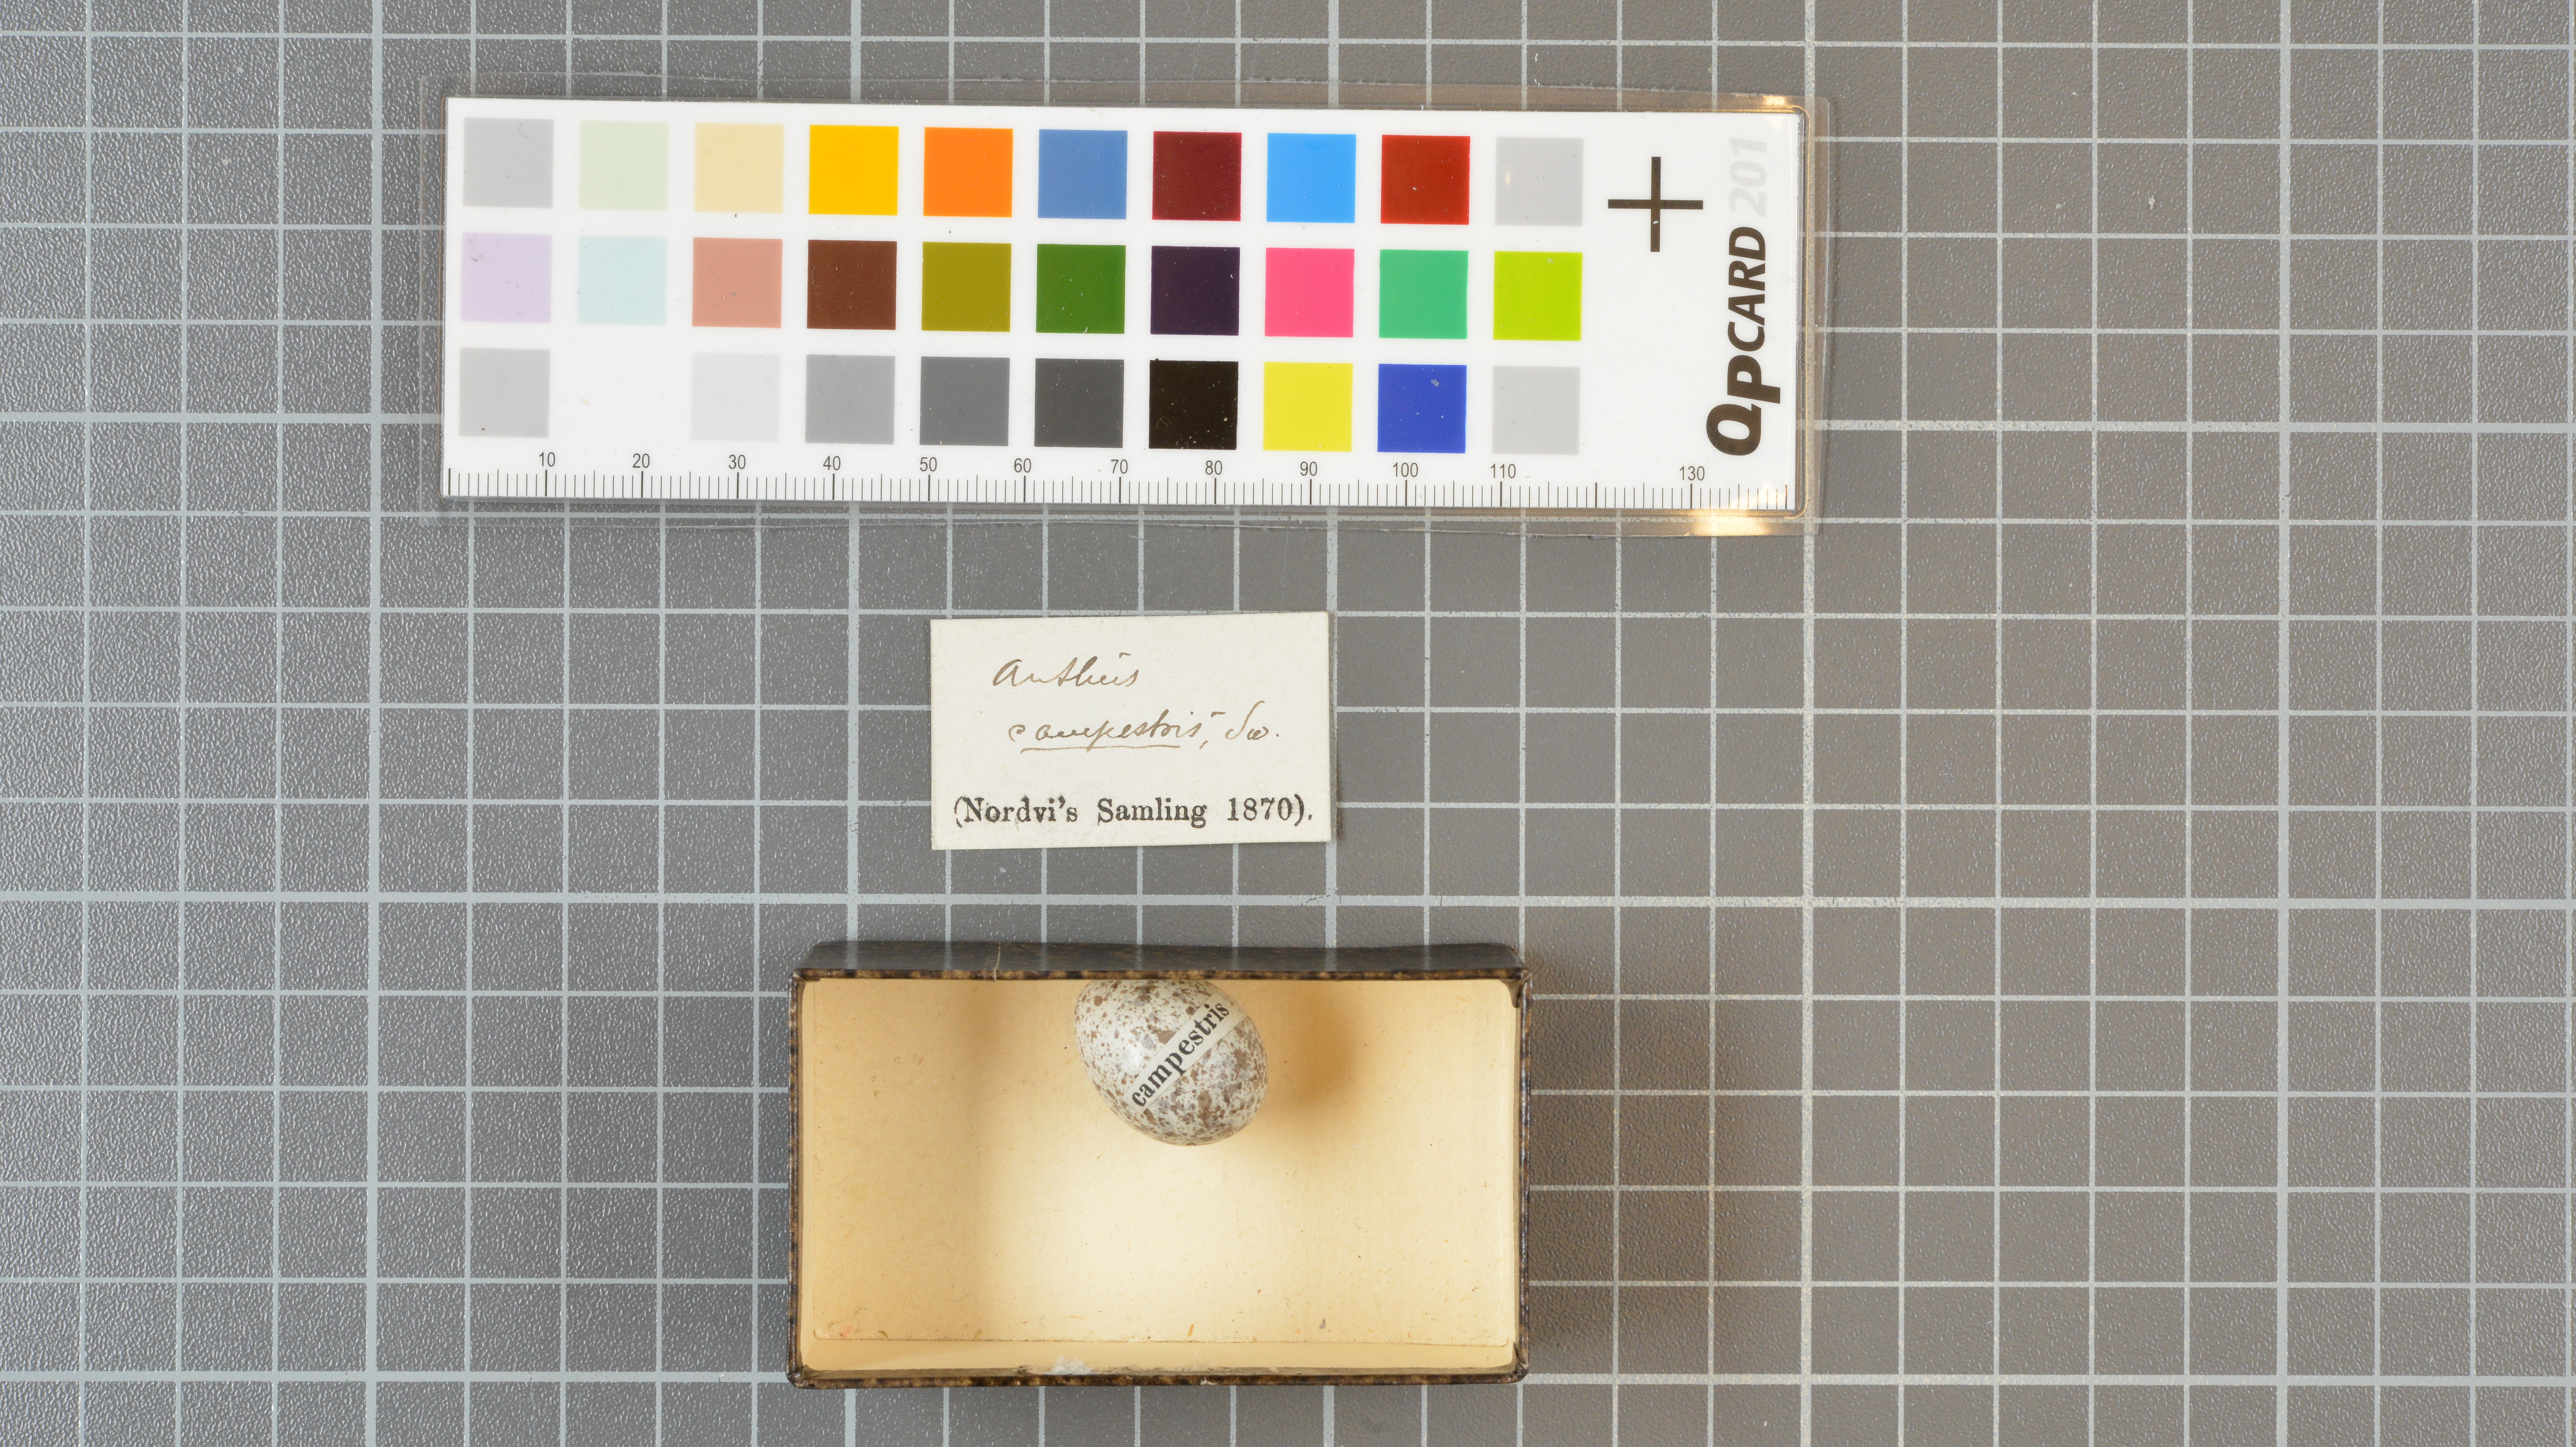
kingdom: Animalia
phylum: Chordata
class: Aves
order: Passeriformes
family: Motacillidae
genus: Anthus
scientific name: Anthus campestris
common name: Tawny pipit
